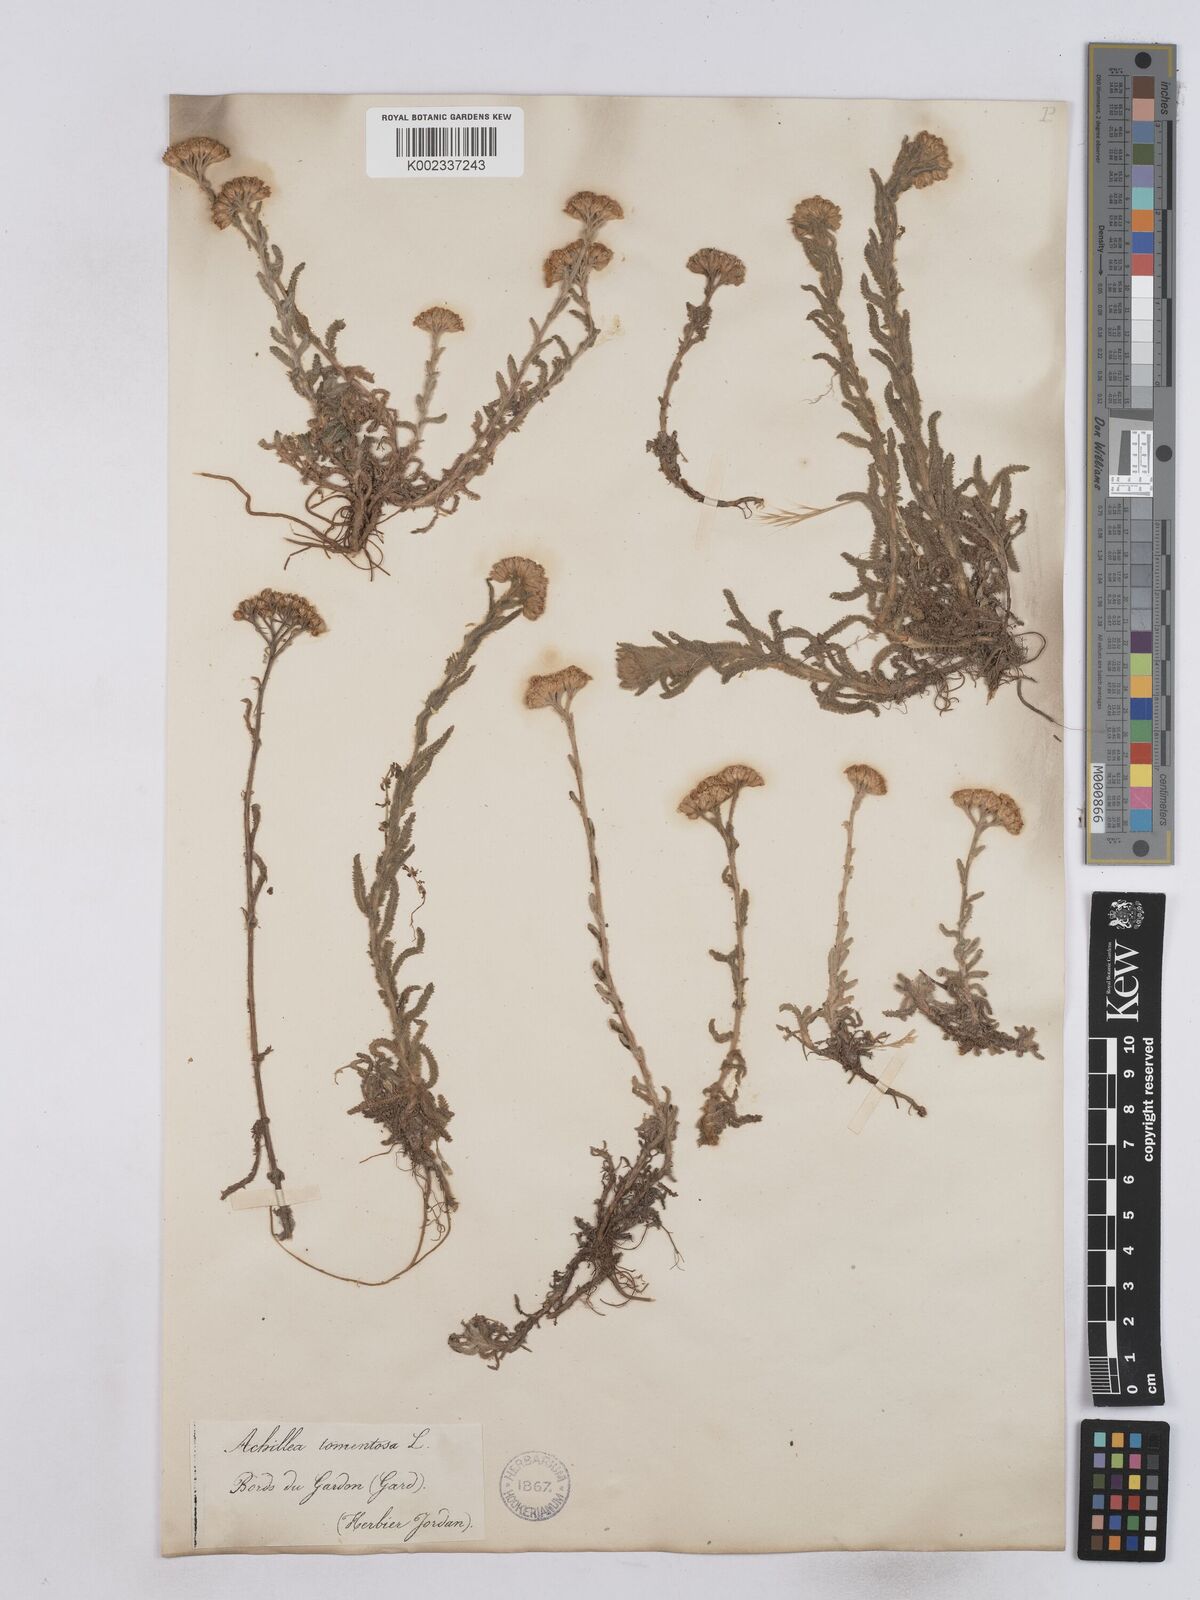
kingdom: Plantae
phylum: Tracheophyta
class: Magnoliopsida
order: Asterales
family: Asteraceae
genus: Achillea
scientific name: Achillea tomentosa
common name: Yellow milfoil
